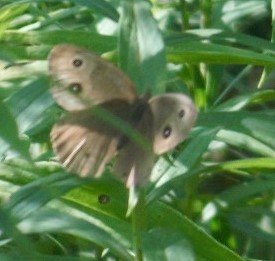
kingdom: Animalia
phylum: Arthropoda
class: Insecta
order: Lepidoptera
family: Nymphalidae
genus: Cercyonis
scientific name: Cercyonis pegala
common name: Common Wood-Nymph
